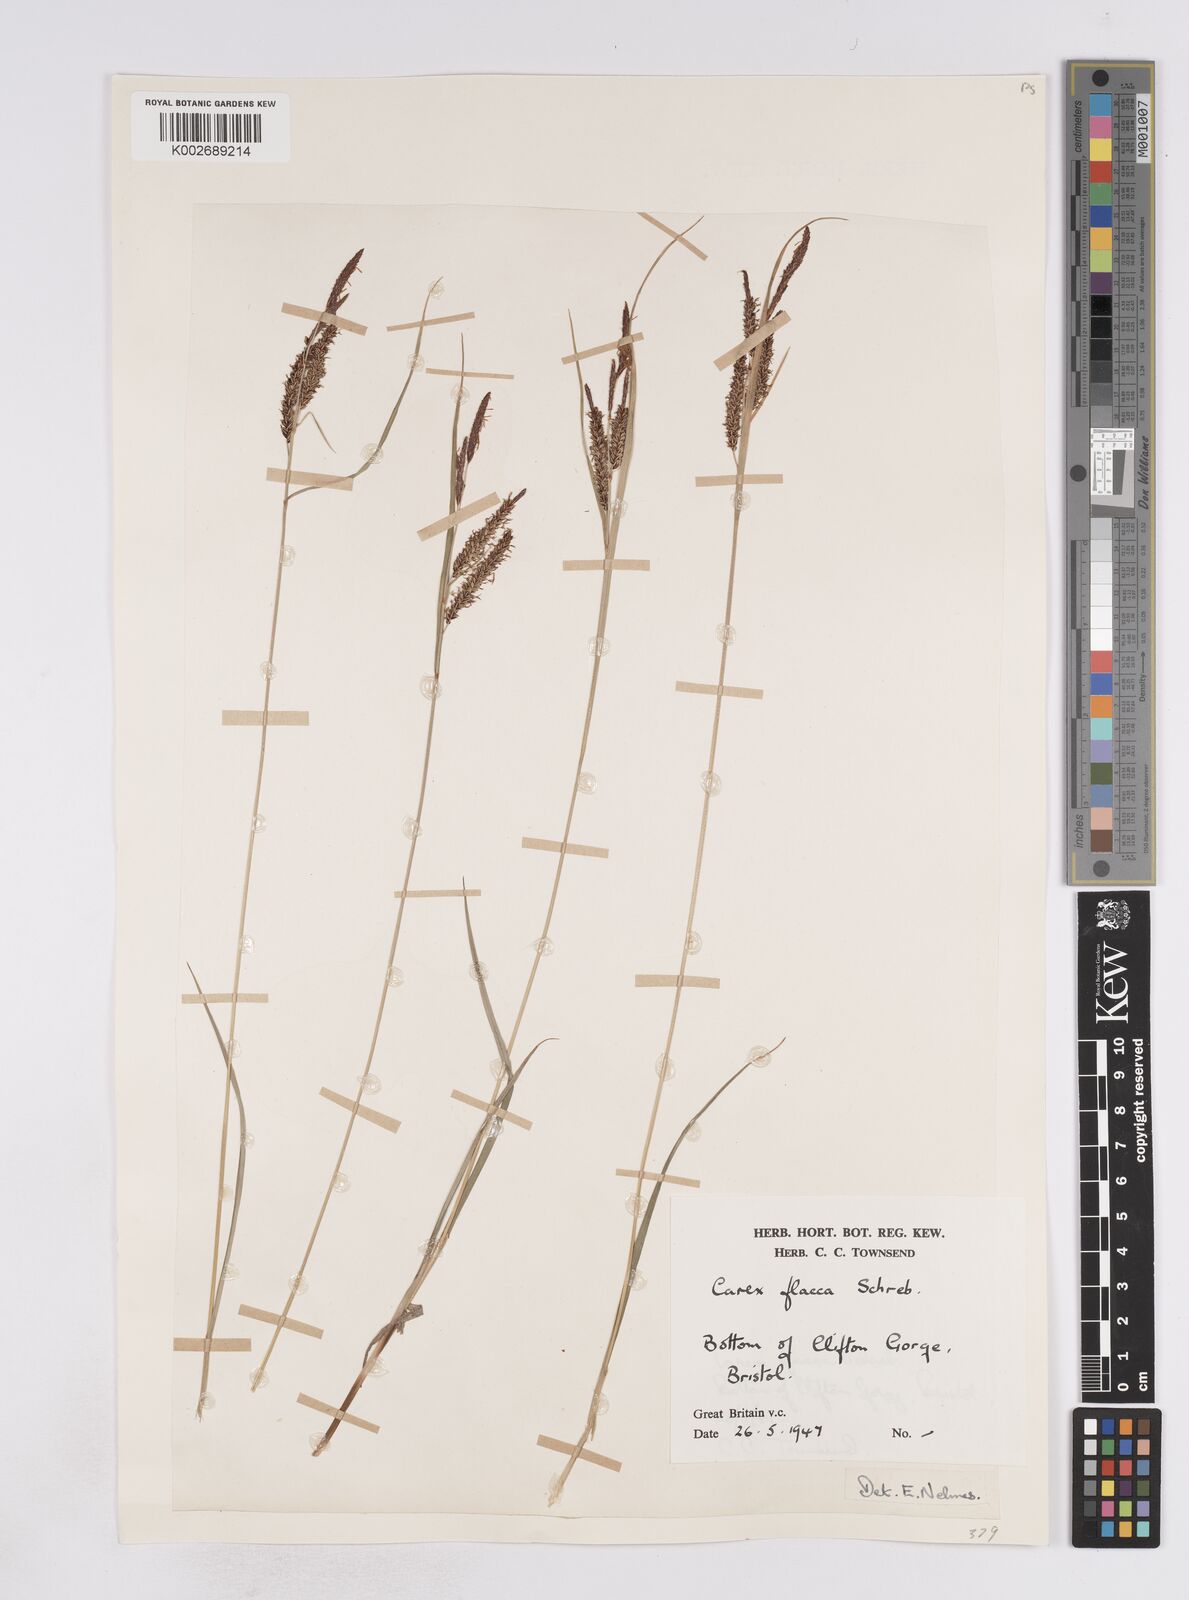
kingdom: Plantae
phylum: Tracheophyta
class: Liliopsida
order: Poales
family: Cyperaceae
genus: Carex
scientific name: Carex flacca
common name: Glaucous sedge
